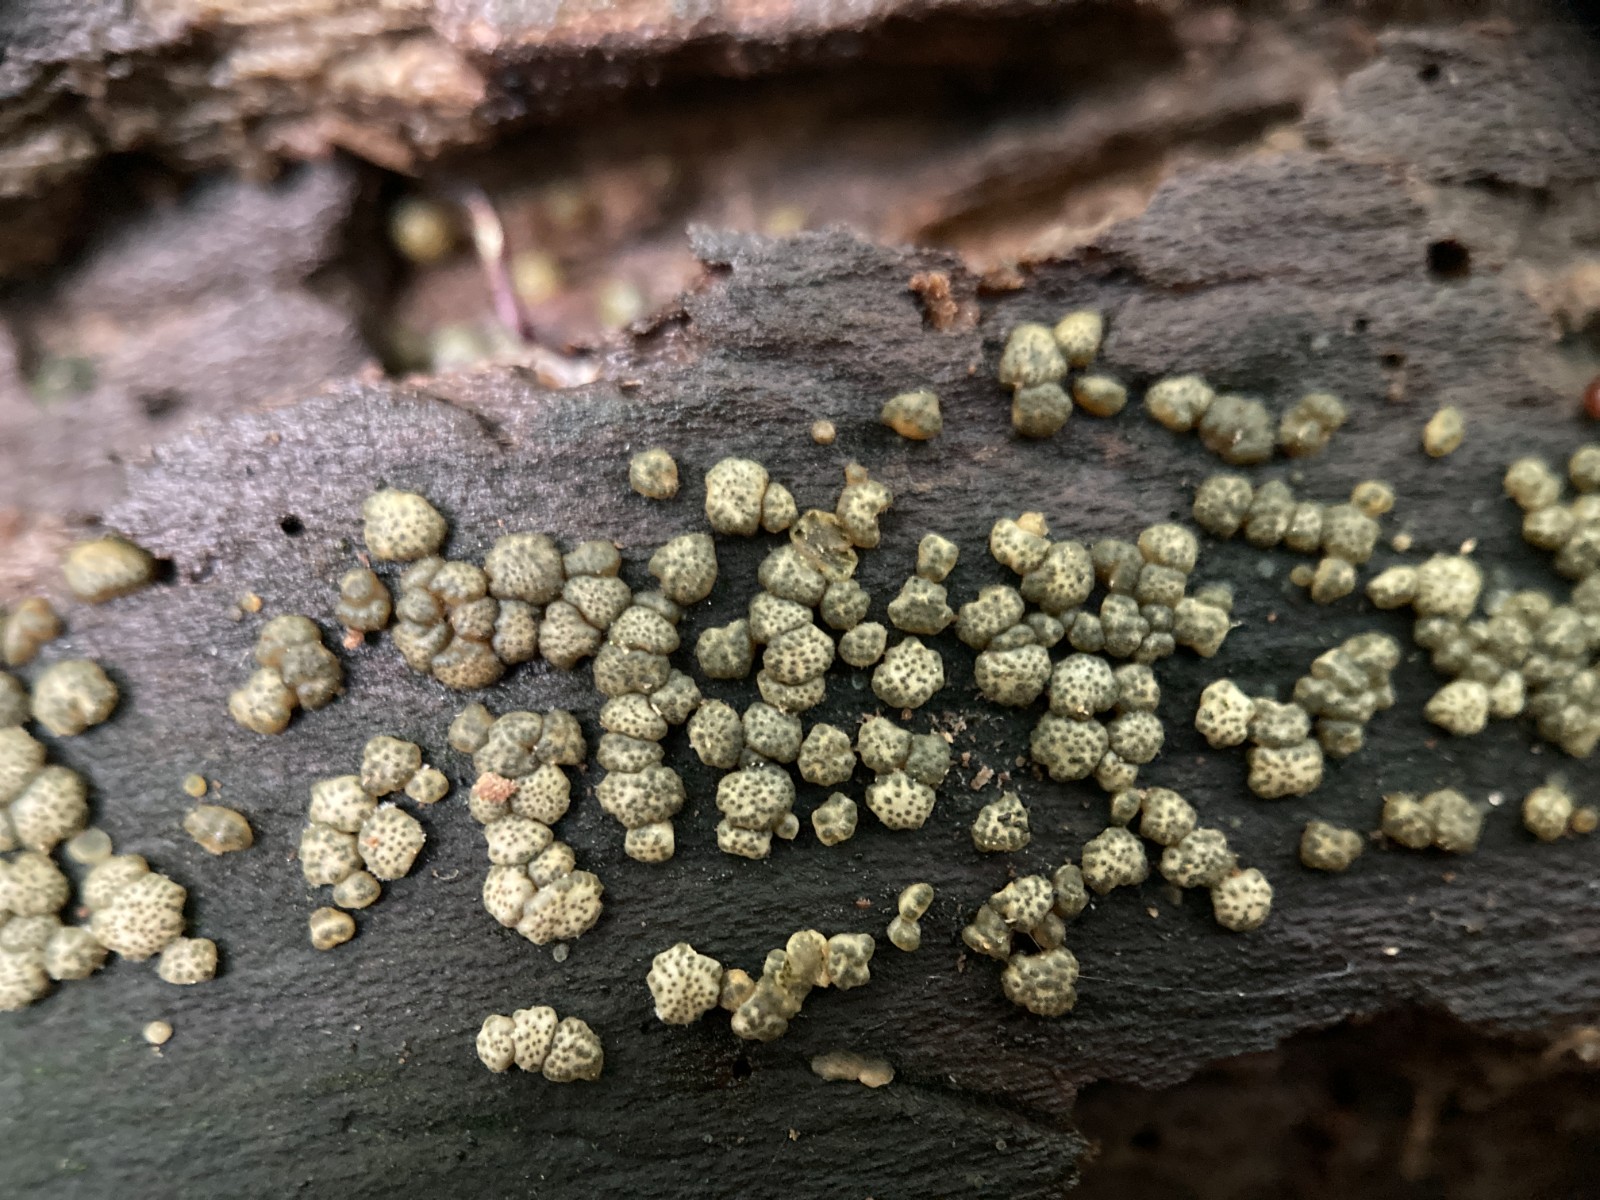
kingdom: Fungi
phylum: Ascomycota
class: Sordariomycetes
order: Hypocreales
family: Hypocreaceae
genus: Trichoderma
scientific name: Trichoderma strictipile
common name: grønprikket kødkerne
